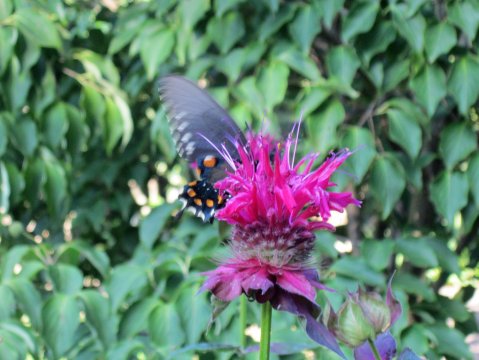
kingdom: Animalia
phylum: Arthropoda
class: Insecta
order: Lepidoptera
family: Papilionidae
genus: Battus
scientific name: Battus philenor
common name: Pipevine Swallowtail
